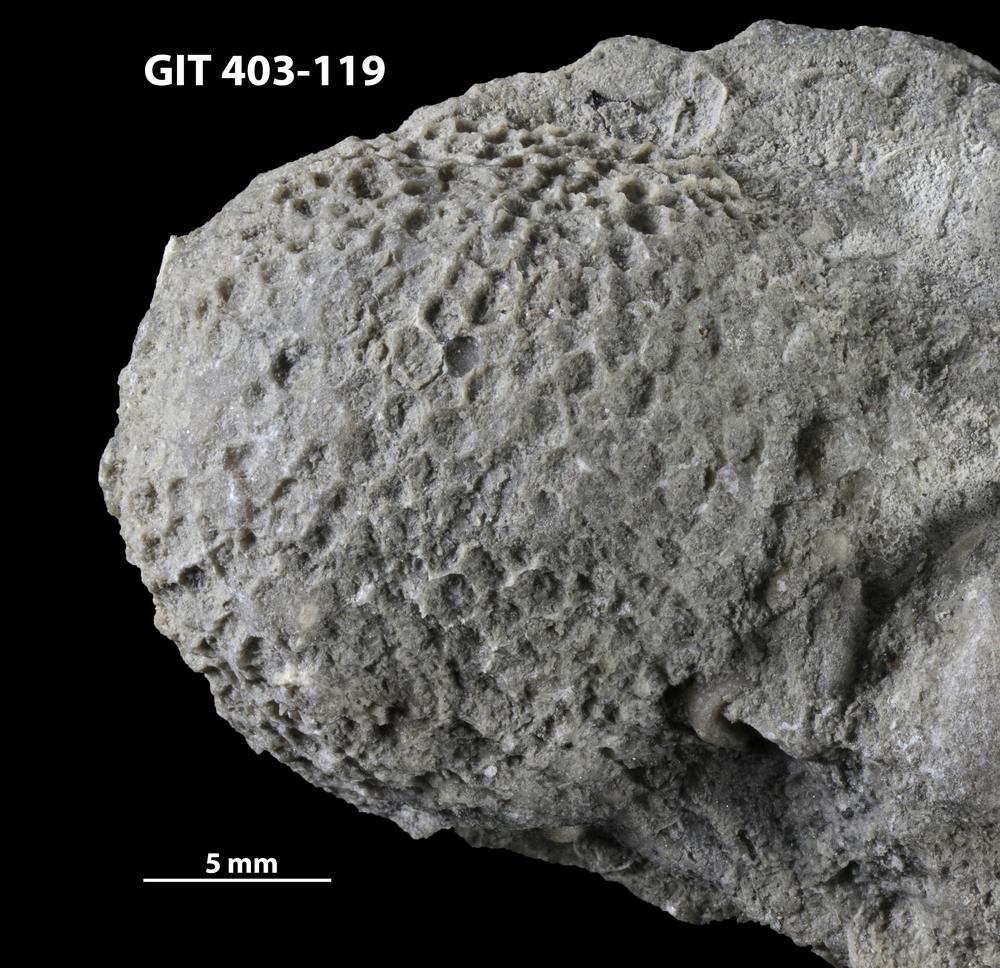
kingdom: Animalia
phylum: Cnidaria
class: Anthozoa
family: Favositidae
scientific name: Favositidae
